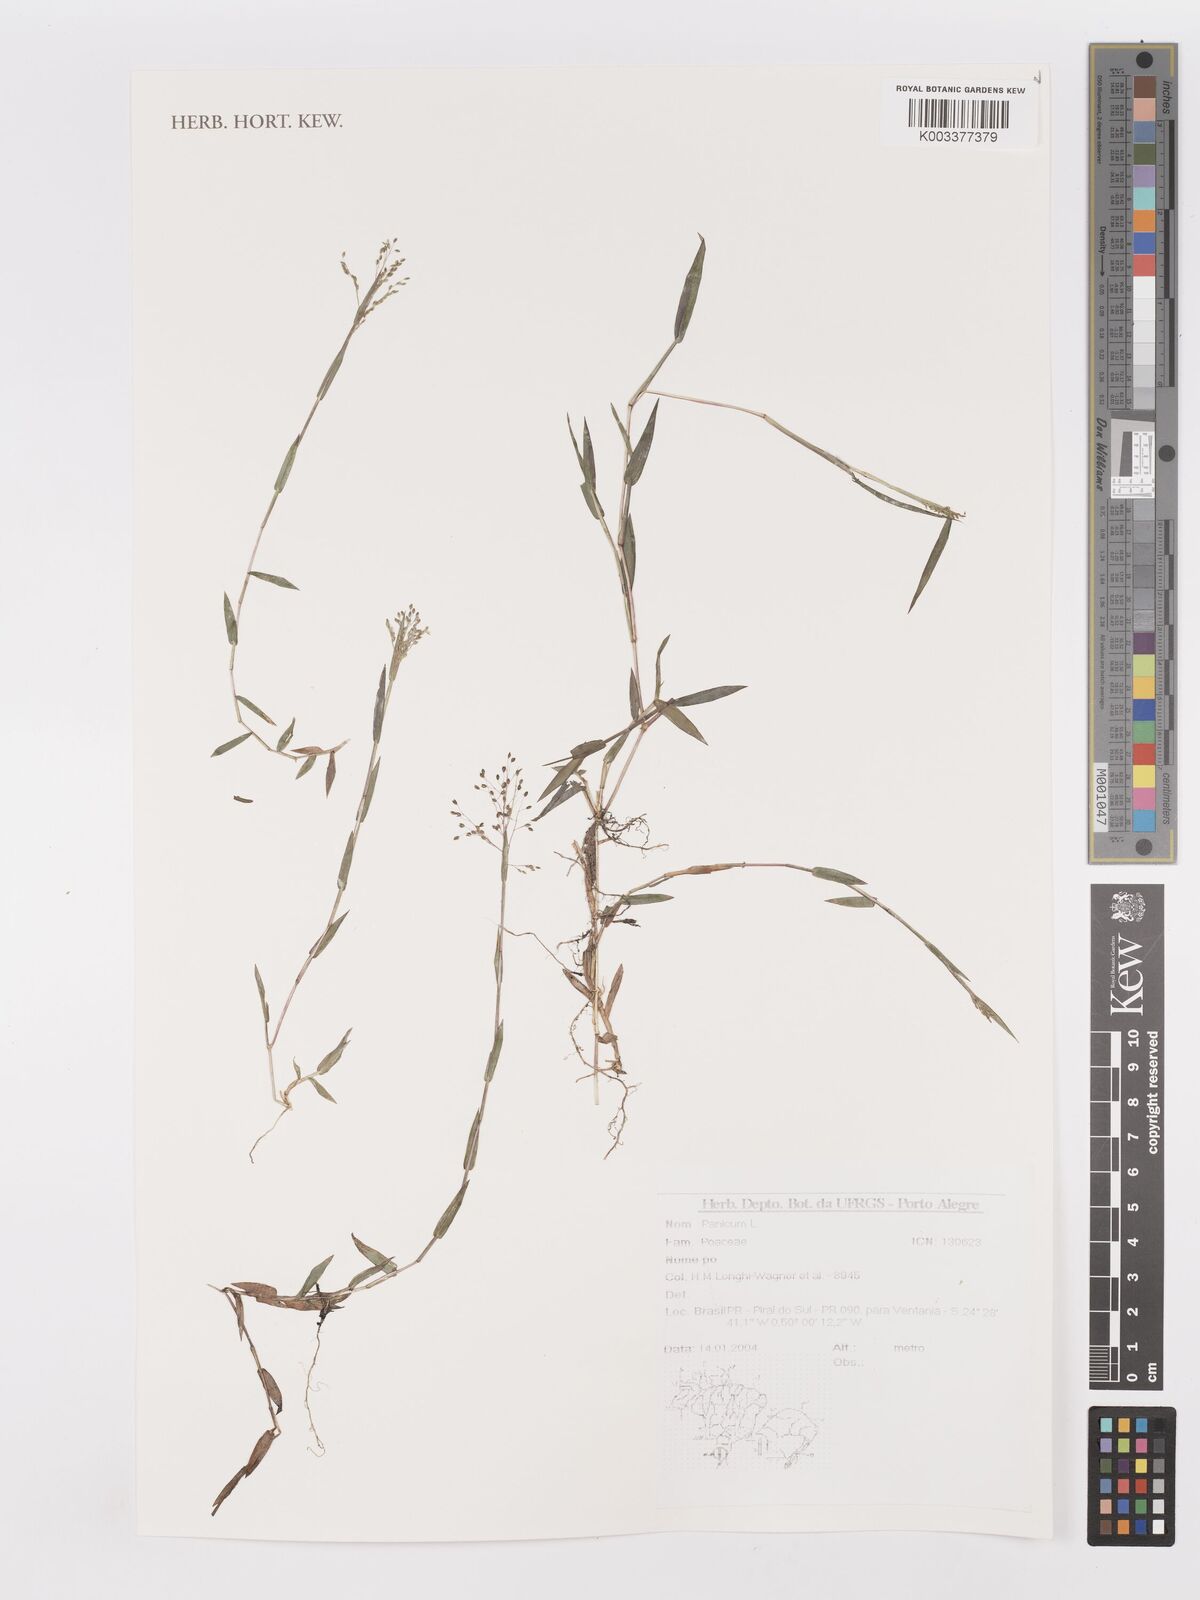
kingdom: Plantae
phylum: Tracheophyta
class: Liliopsida
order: Poales
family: Poaceae
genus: Panicum
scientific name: Panicum
